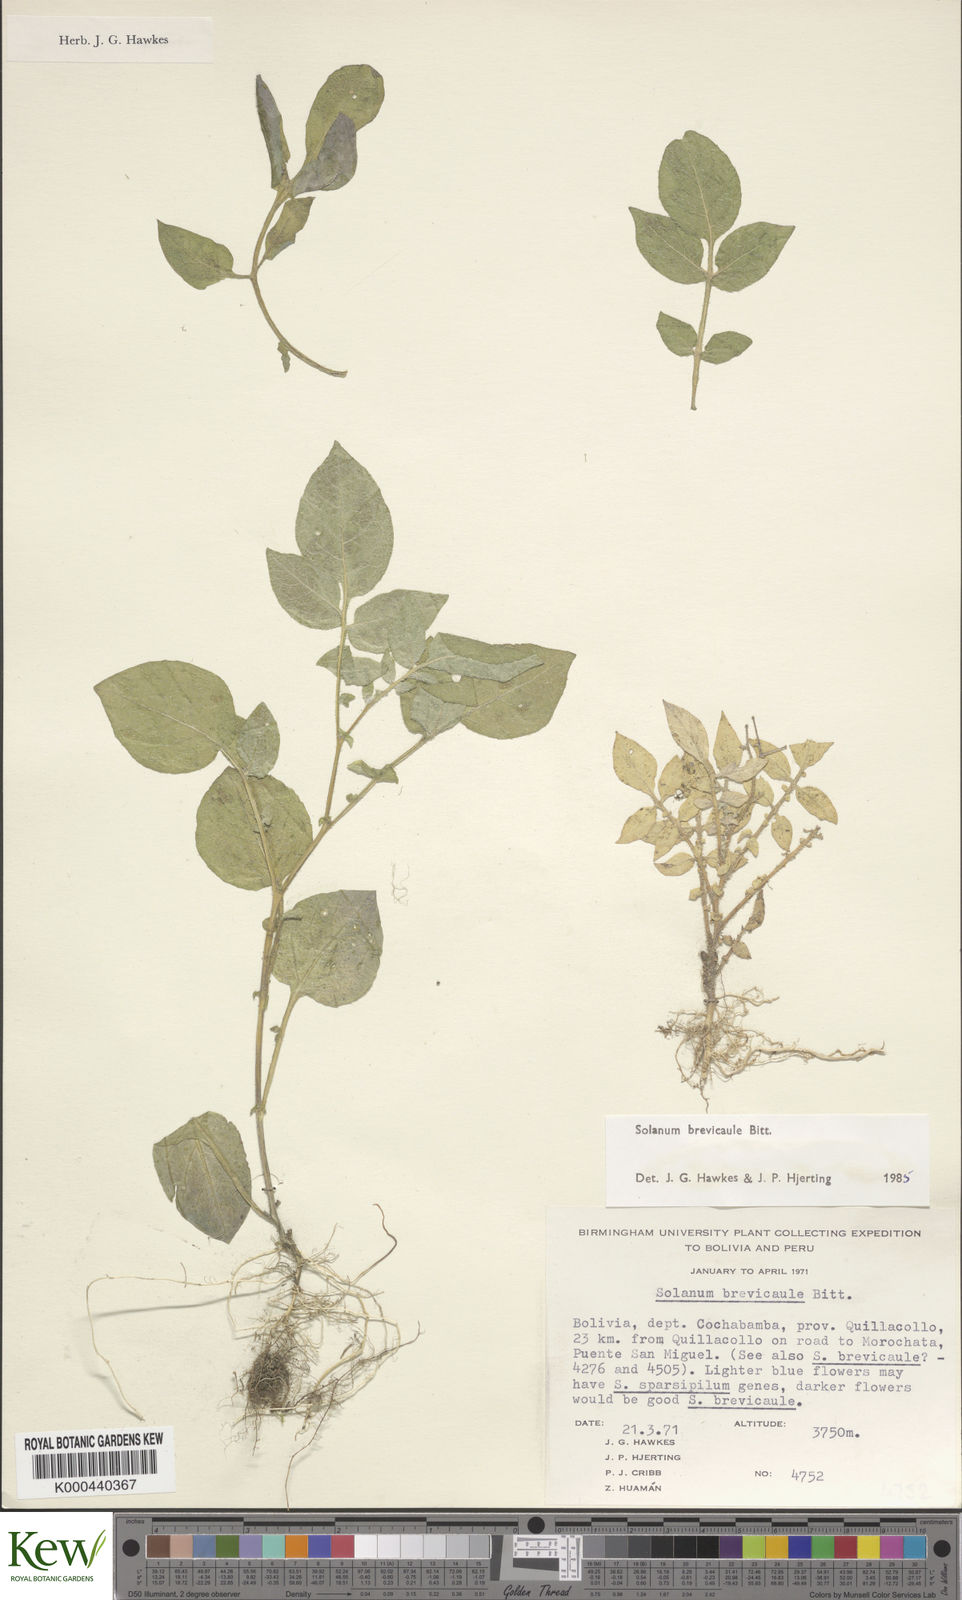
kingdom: Plantae
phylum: Tracheophyta
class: Magnoliopsida
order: Solanales
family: Solanaceae
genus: Solanum
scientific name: Solanum brevicaule
